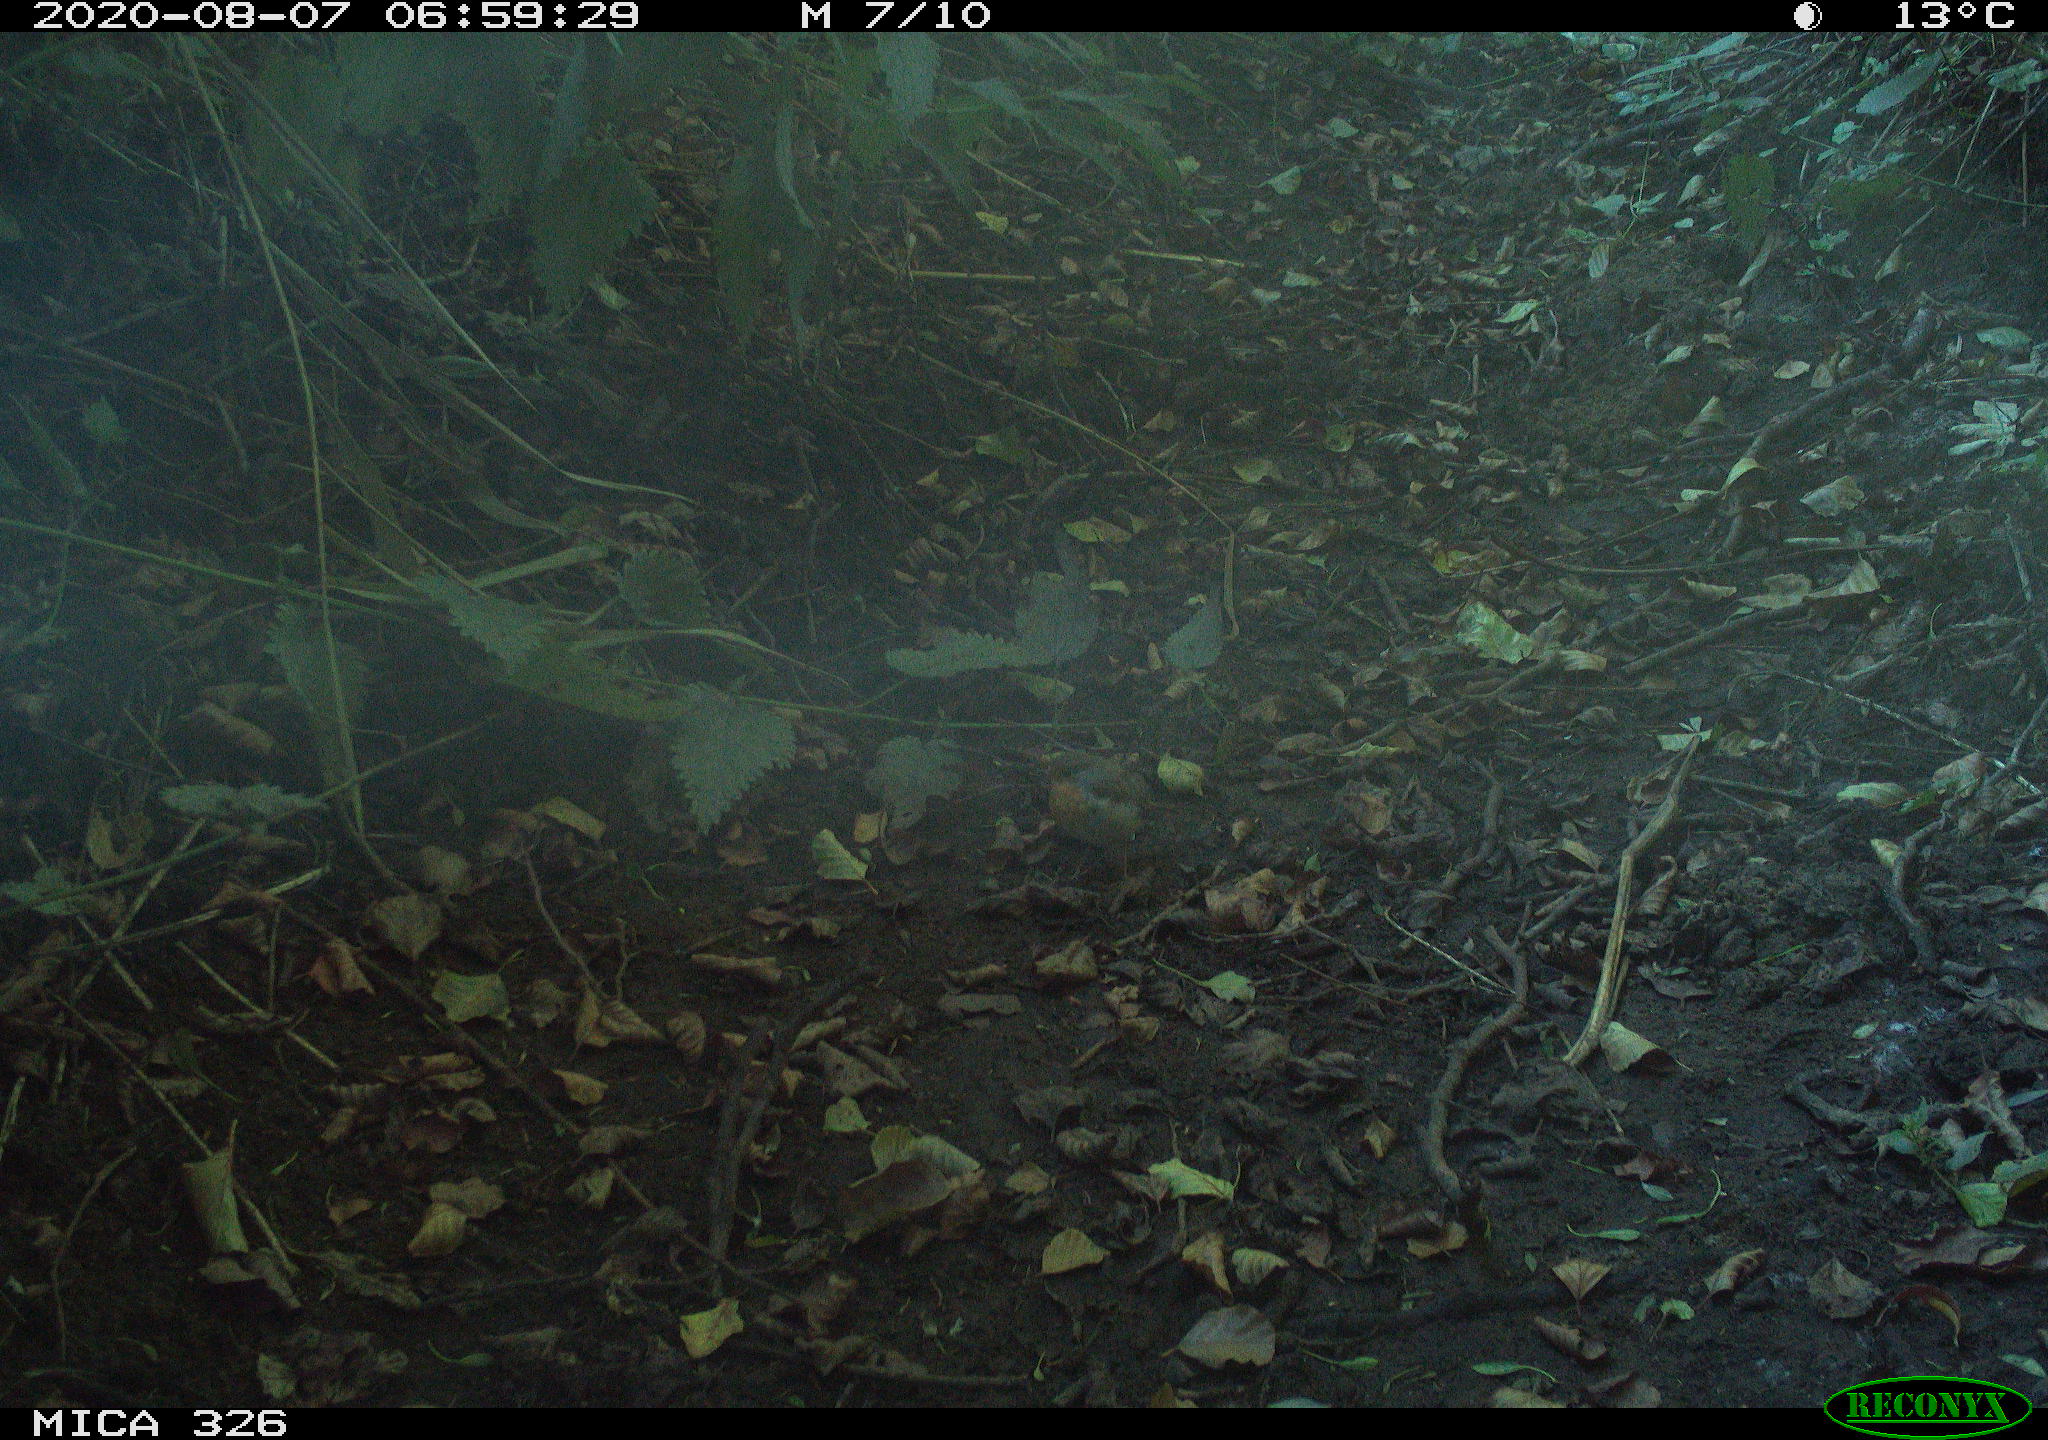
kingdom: Animalia
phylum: Chordata
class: Aves
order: Passeriformes
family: Muscicapidae
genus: Erithacus
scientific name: Erithacus rubecula
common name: European robin
